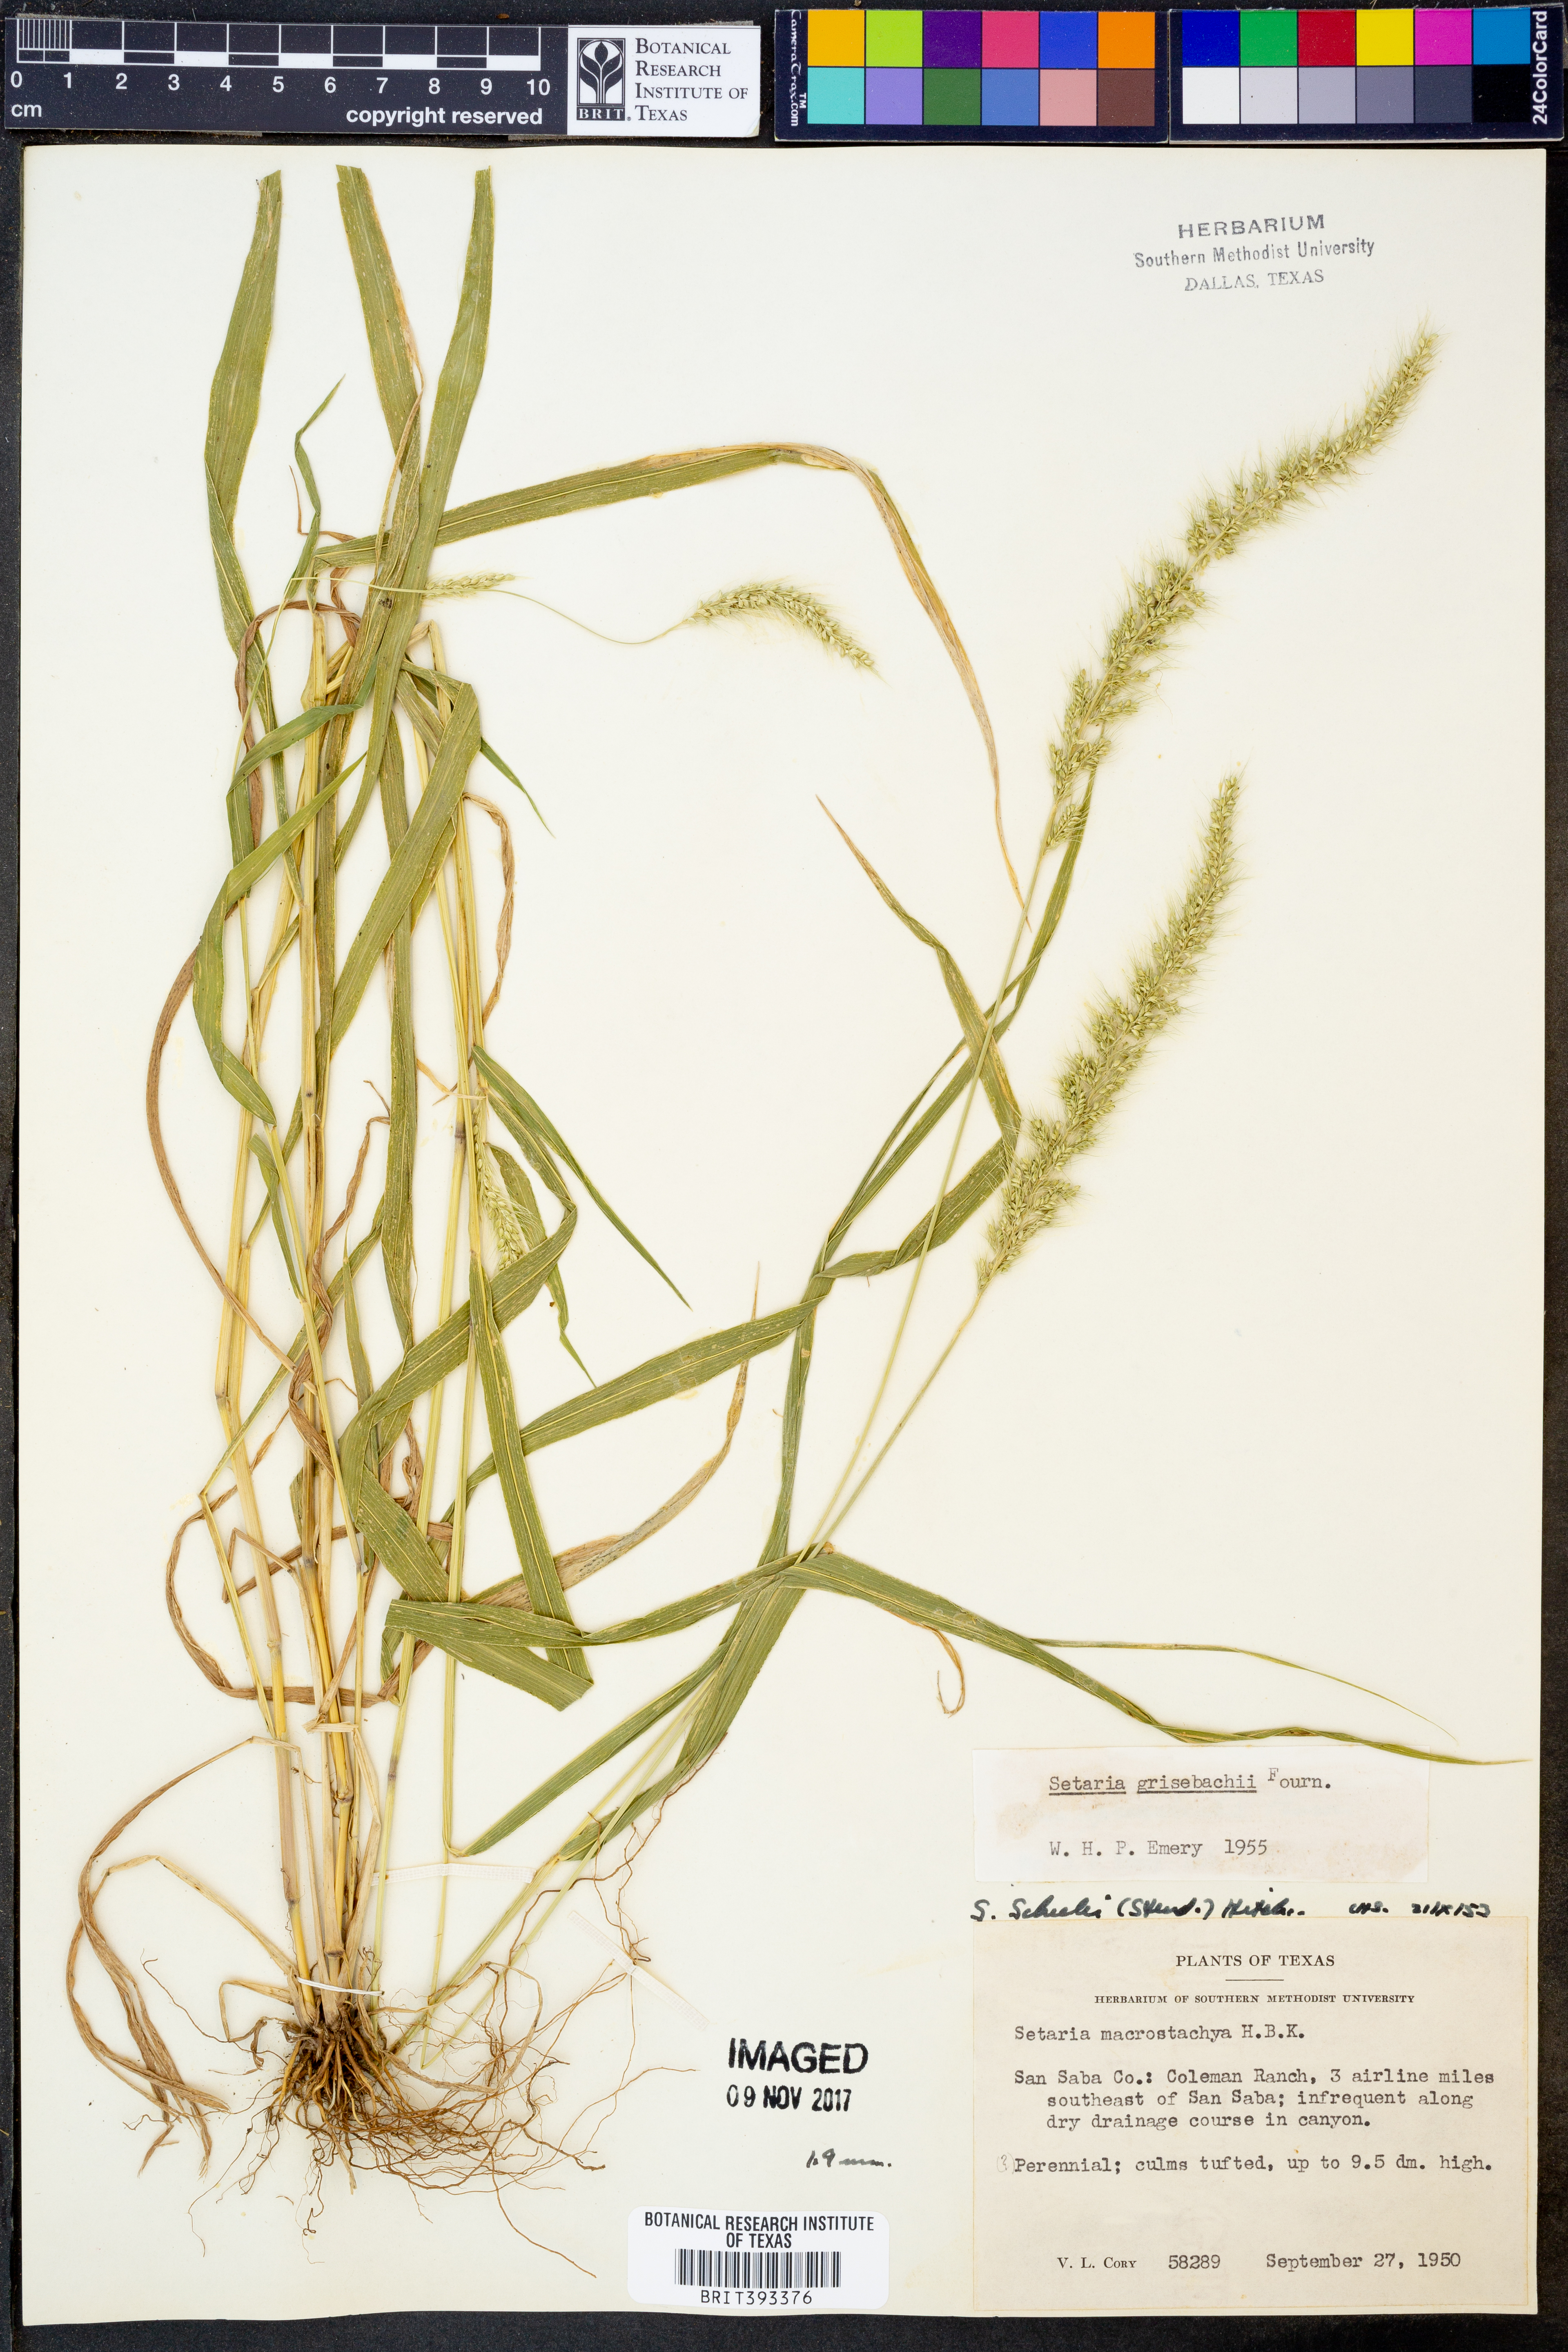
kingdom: Plantae
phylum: Tracheophyta
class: Liliopsida
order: Poales
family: Poaceae
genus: Setaria
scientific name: Setaria grisebachii
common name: Grisebach's bristle grass
